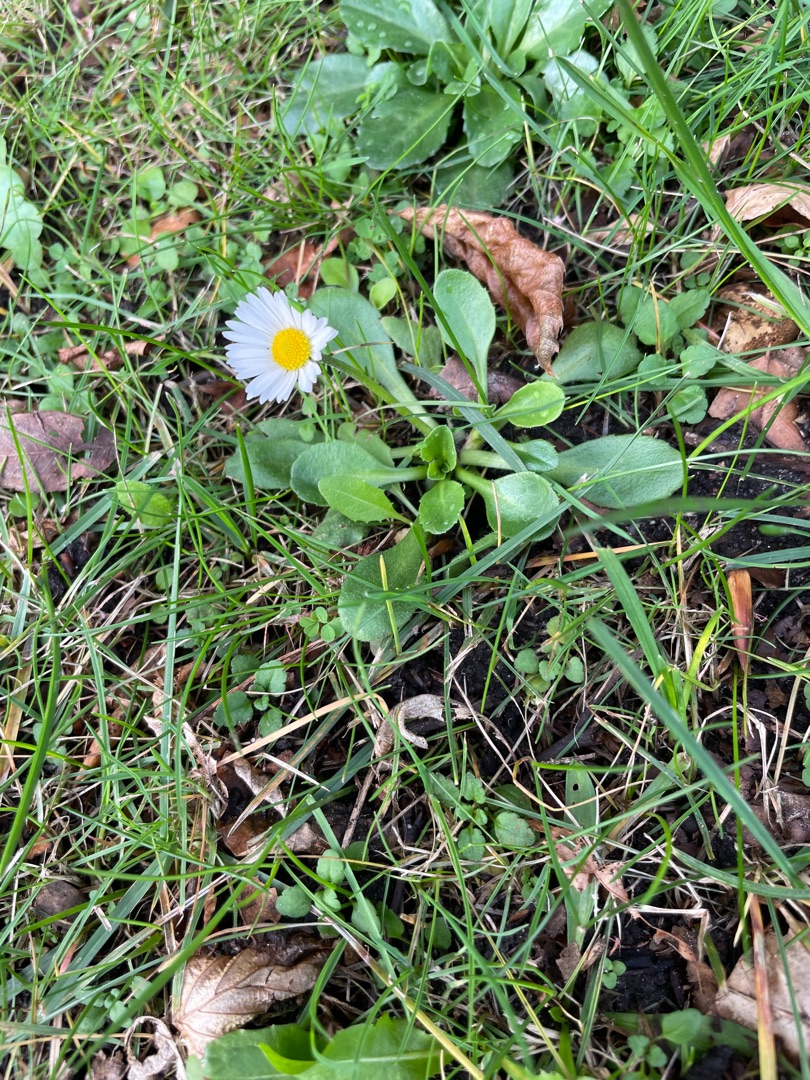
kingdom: Plantae
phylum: Tracheophyta
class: Magnoliopsida
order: Asterales
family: Asteraceae
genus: Bellis
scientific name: Bellis perennis
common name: Tusindfryd
